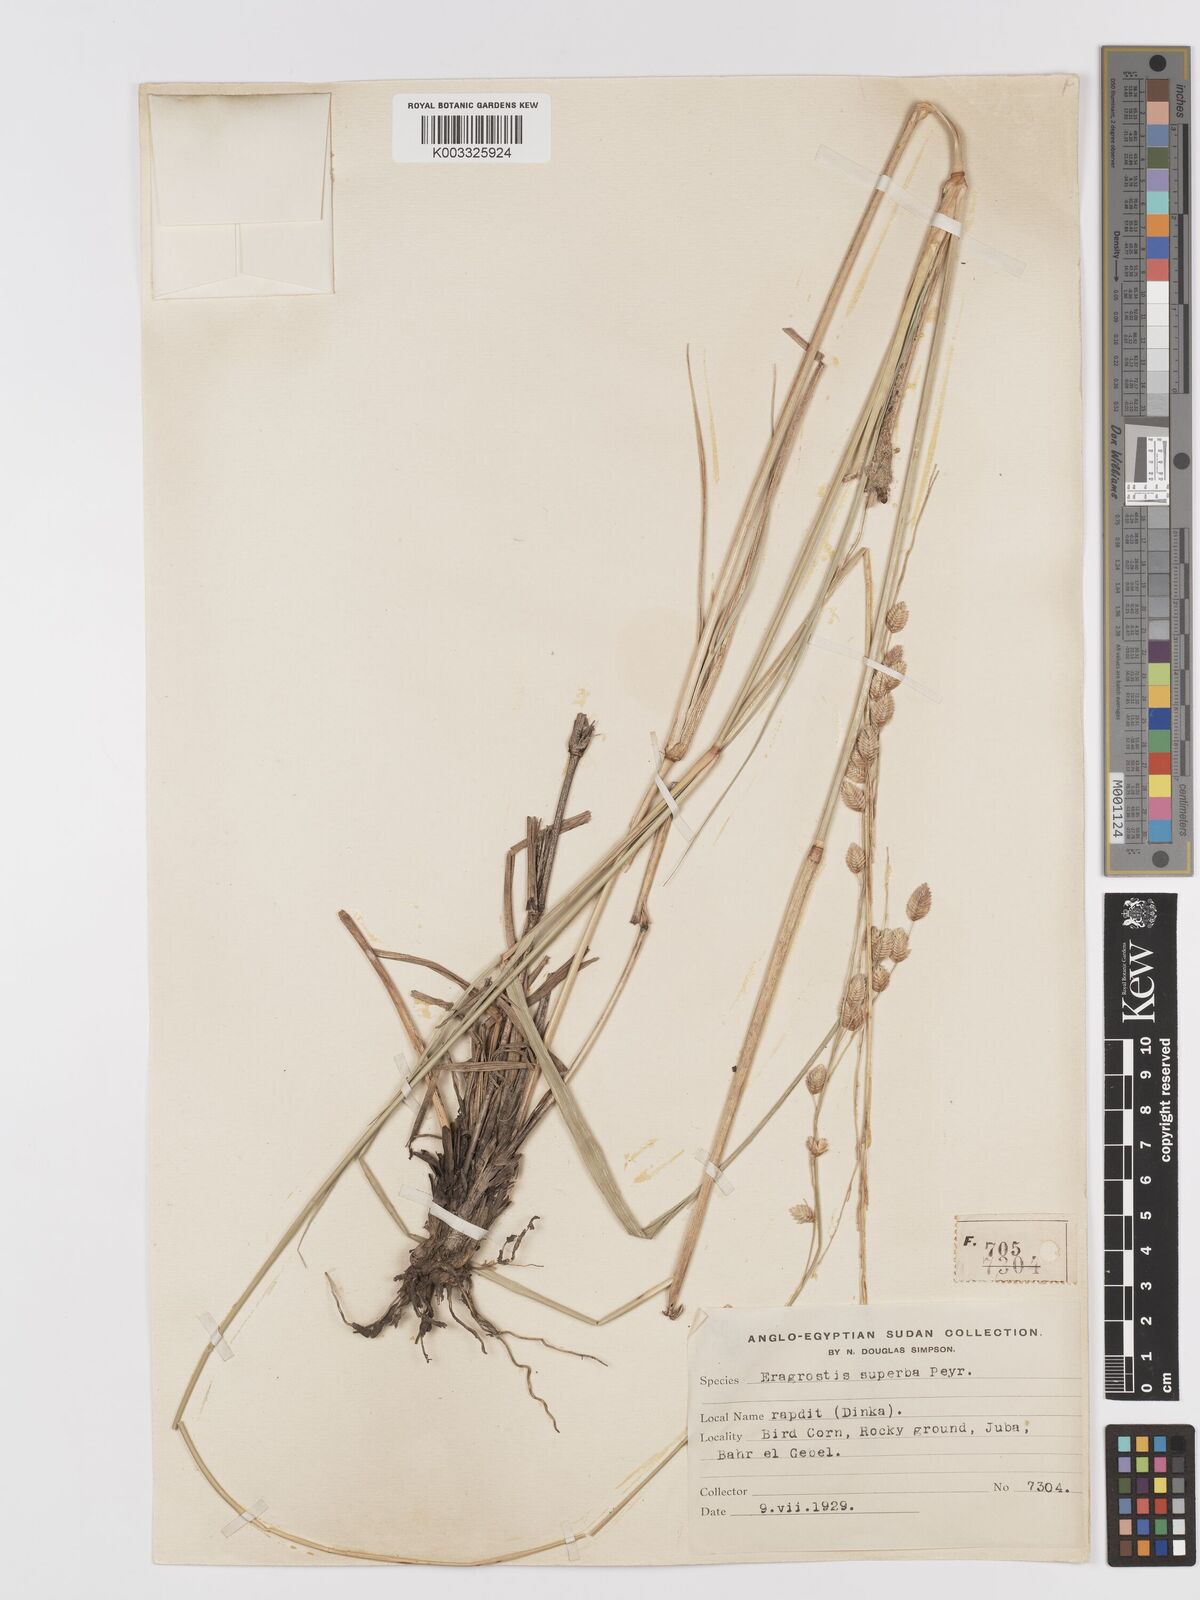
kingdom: Plantae
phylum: Tracheophyta
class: Liliopsida
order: Poales
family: Poaceae
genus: Eragrostis
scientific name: Eragrostis superba
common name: Wilman lovegrass
